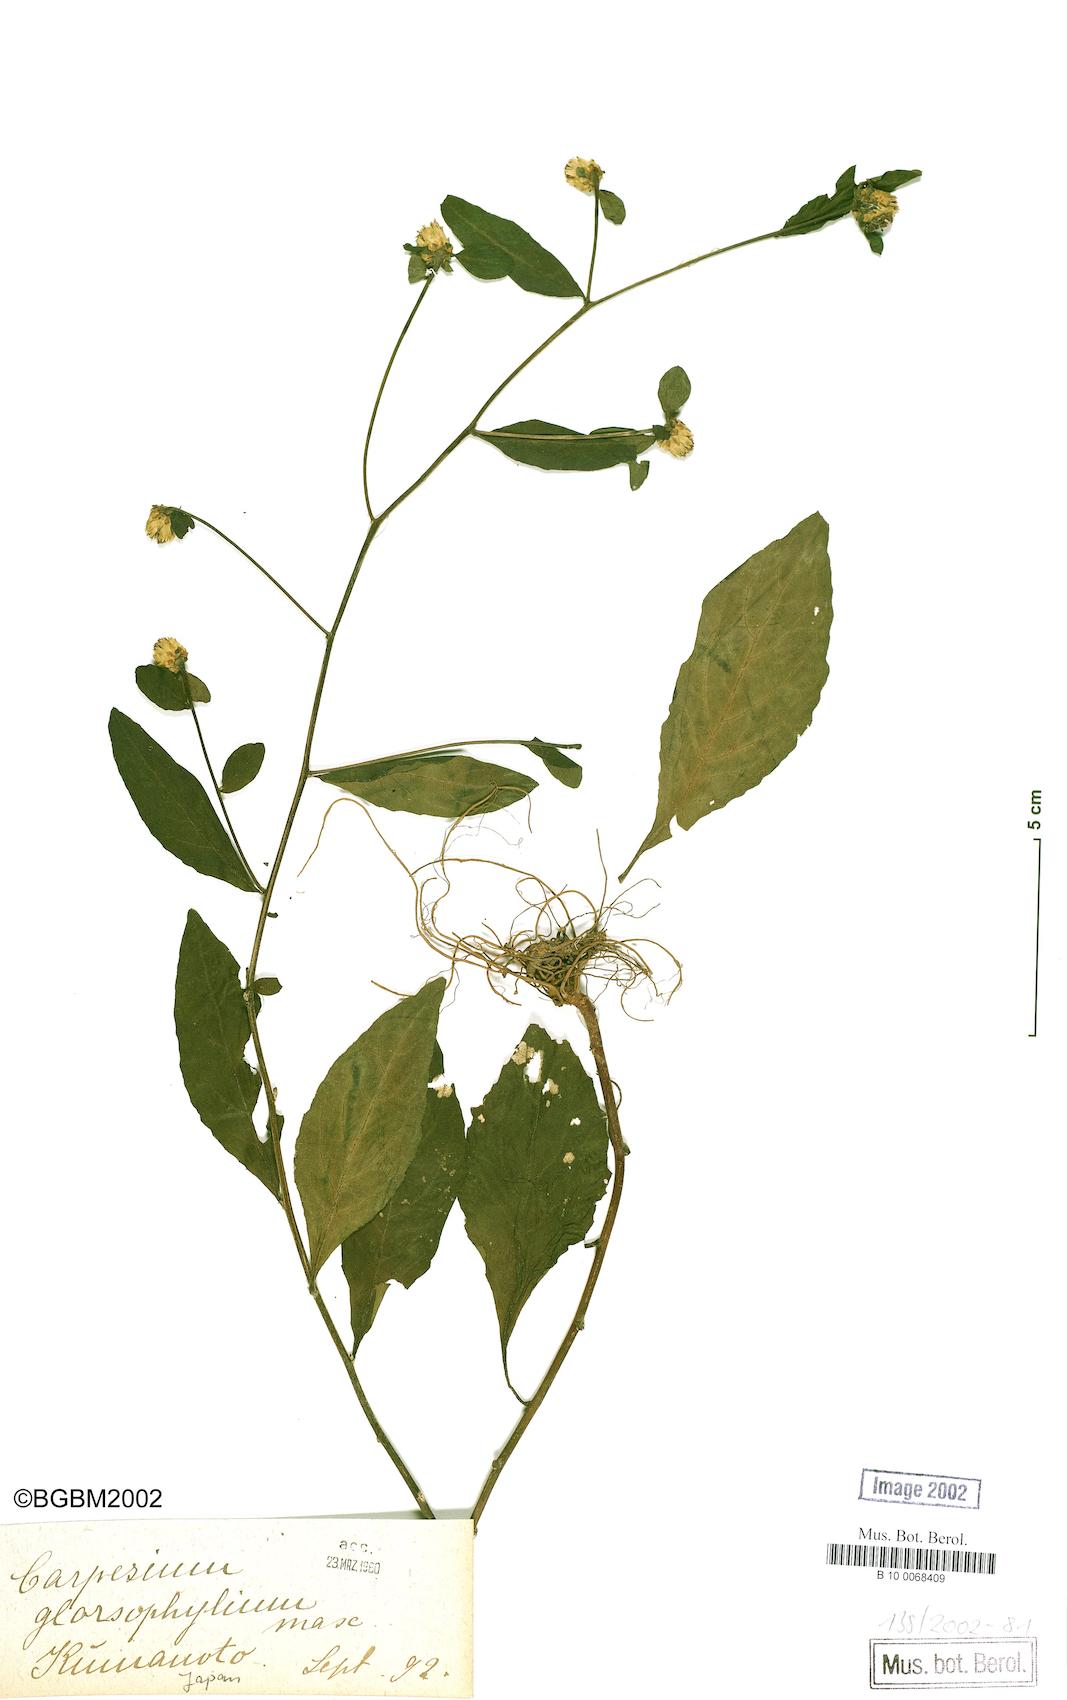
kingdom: Plantae
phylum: Tracheophyta
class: Magnoliopsida
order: Asterales
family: Asteraceae
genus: Carpesium
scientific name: Carpesium divaricatum
